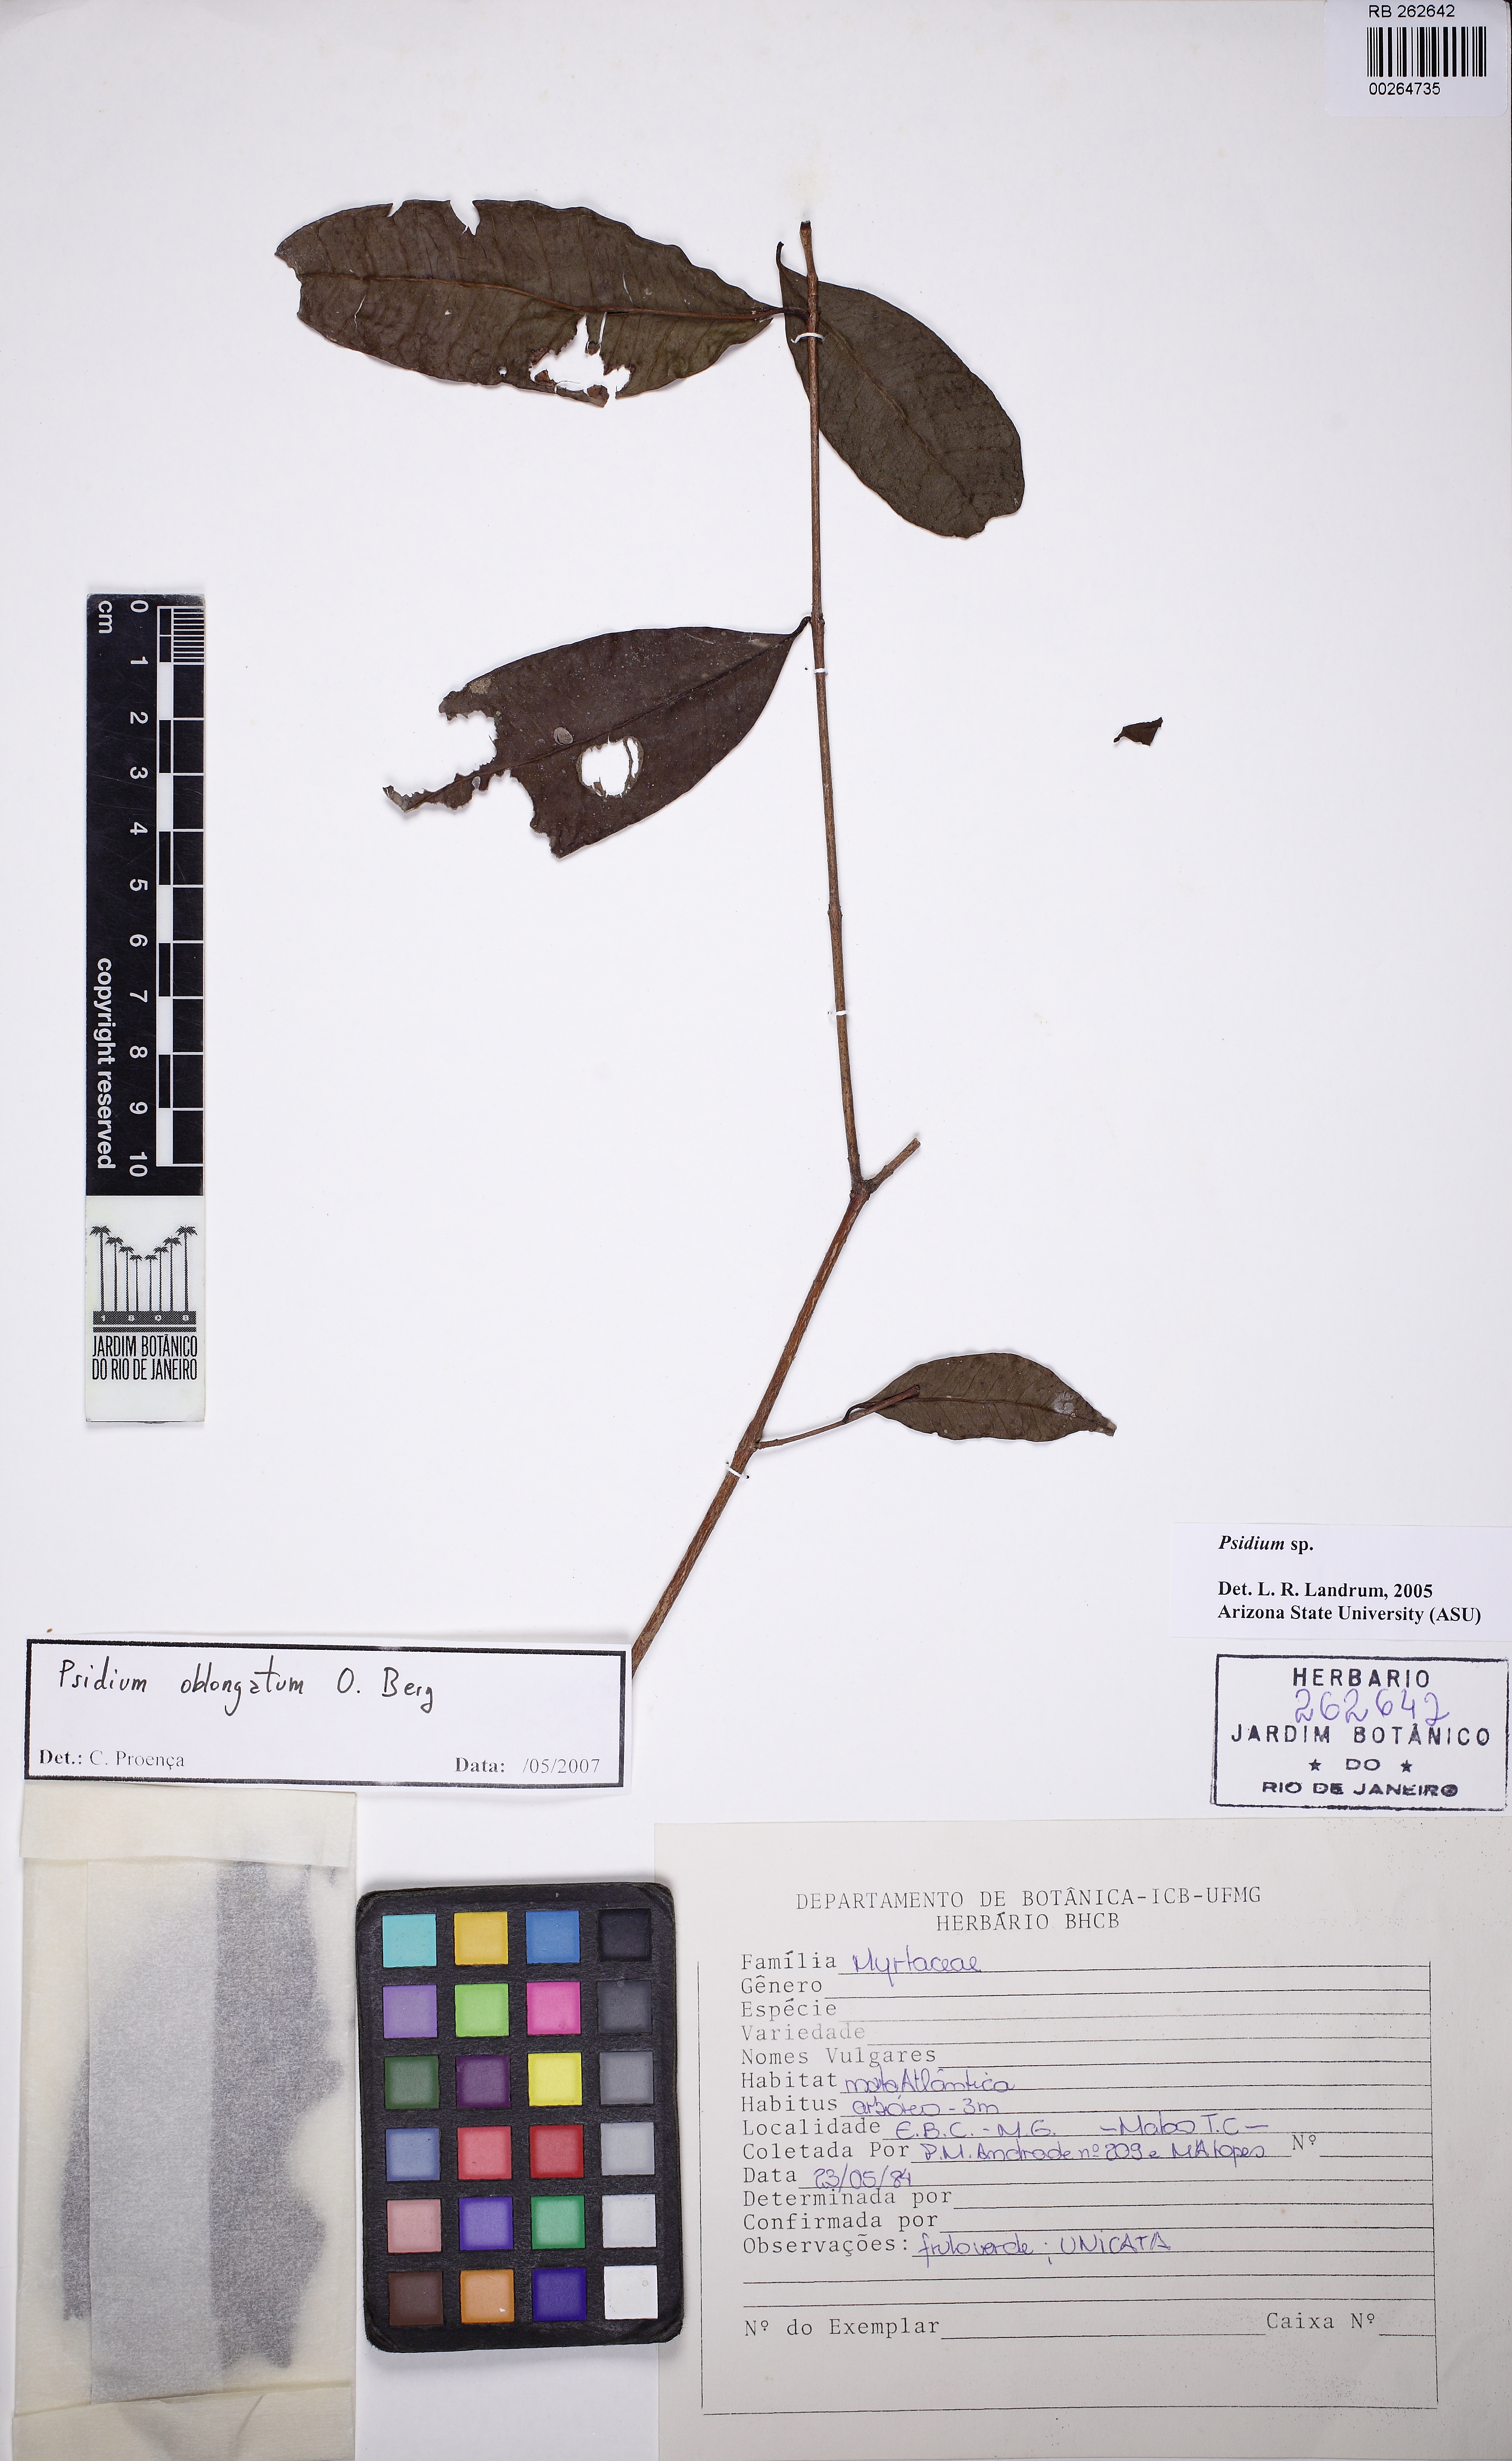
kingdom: Plantae
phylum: Tracheophyta
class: Magnoliopsida
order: Myrtales
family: Myrtaceae
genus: Psidium
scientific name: Psidium oblongatum
